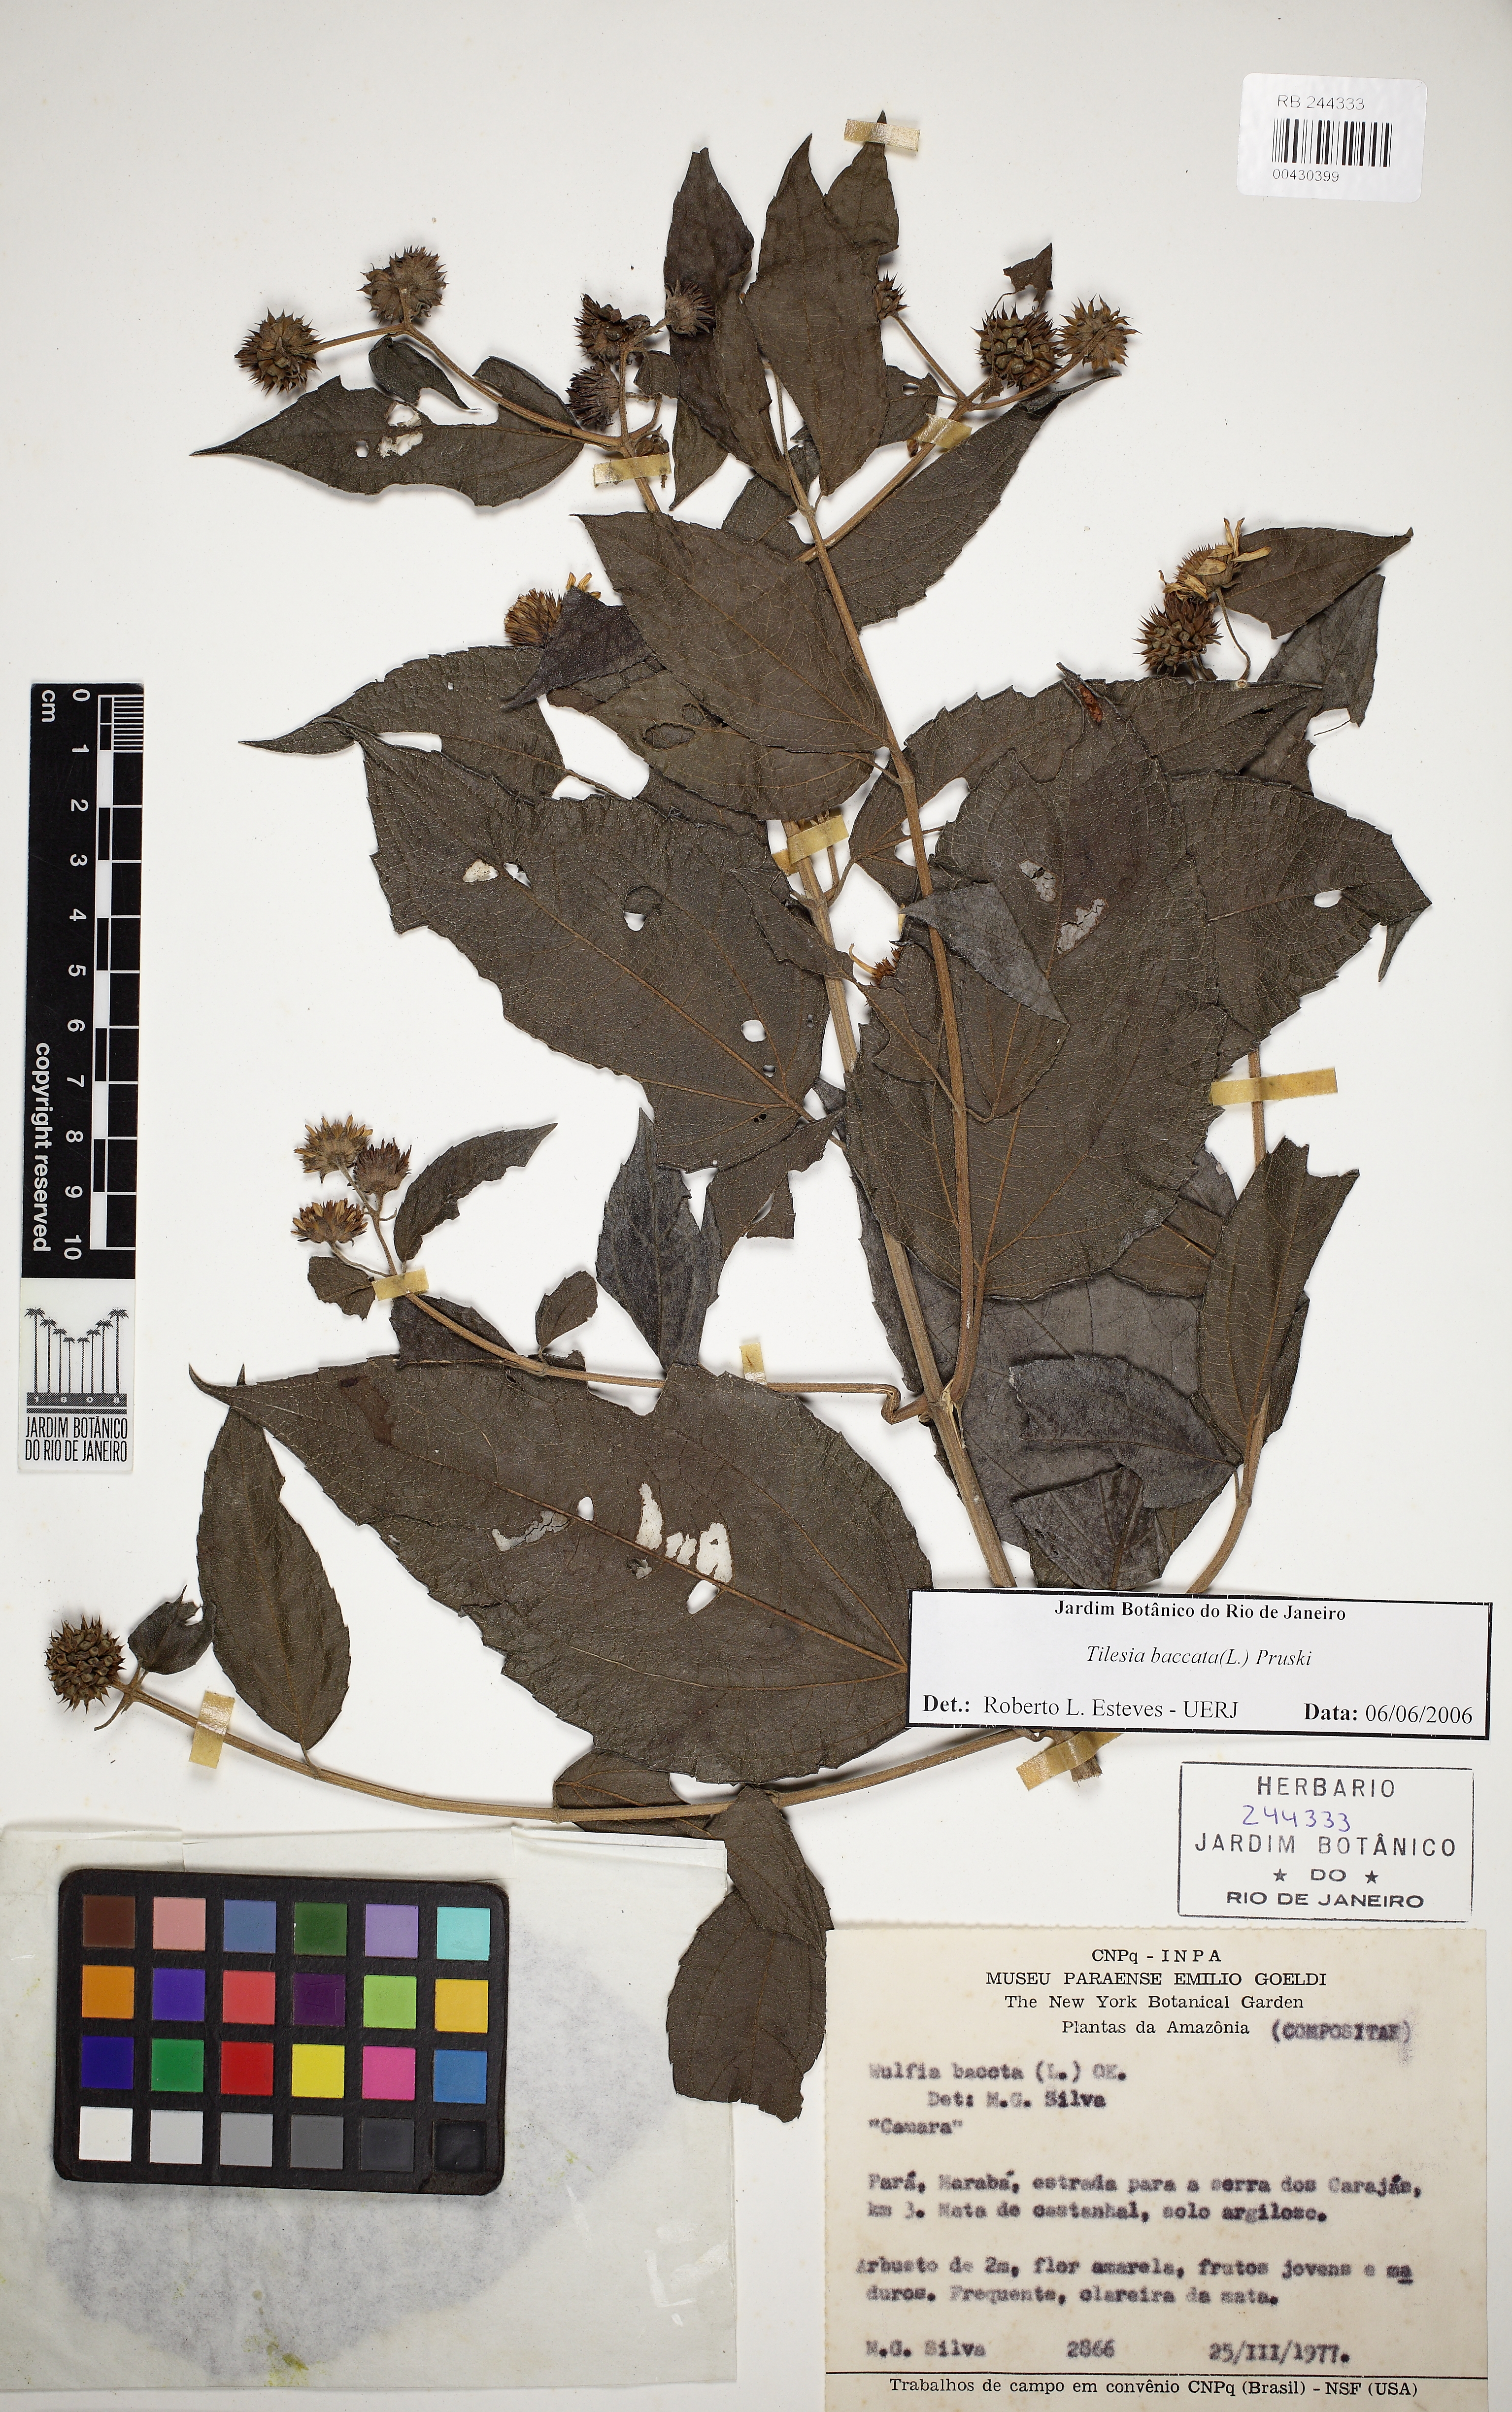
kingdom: Plantae
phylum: Tracheophyta
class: Magnoliopsida
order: Asterales
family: Asteraceae
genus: Tilesia
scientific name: Tilesia baccata
